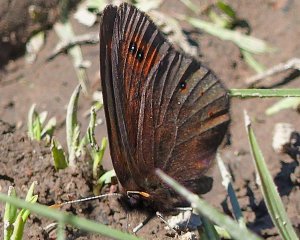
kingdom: Animalia
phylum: Arthropoda
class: Insecta
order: Lepidoptera
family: Nymphalidae
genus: Erebia
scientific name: Erebia epipsodea
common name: Common Alpine
